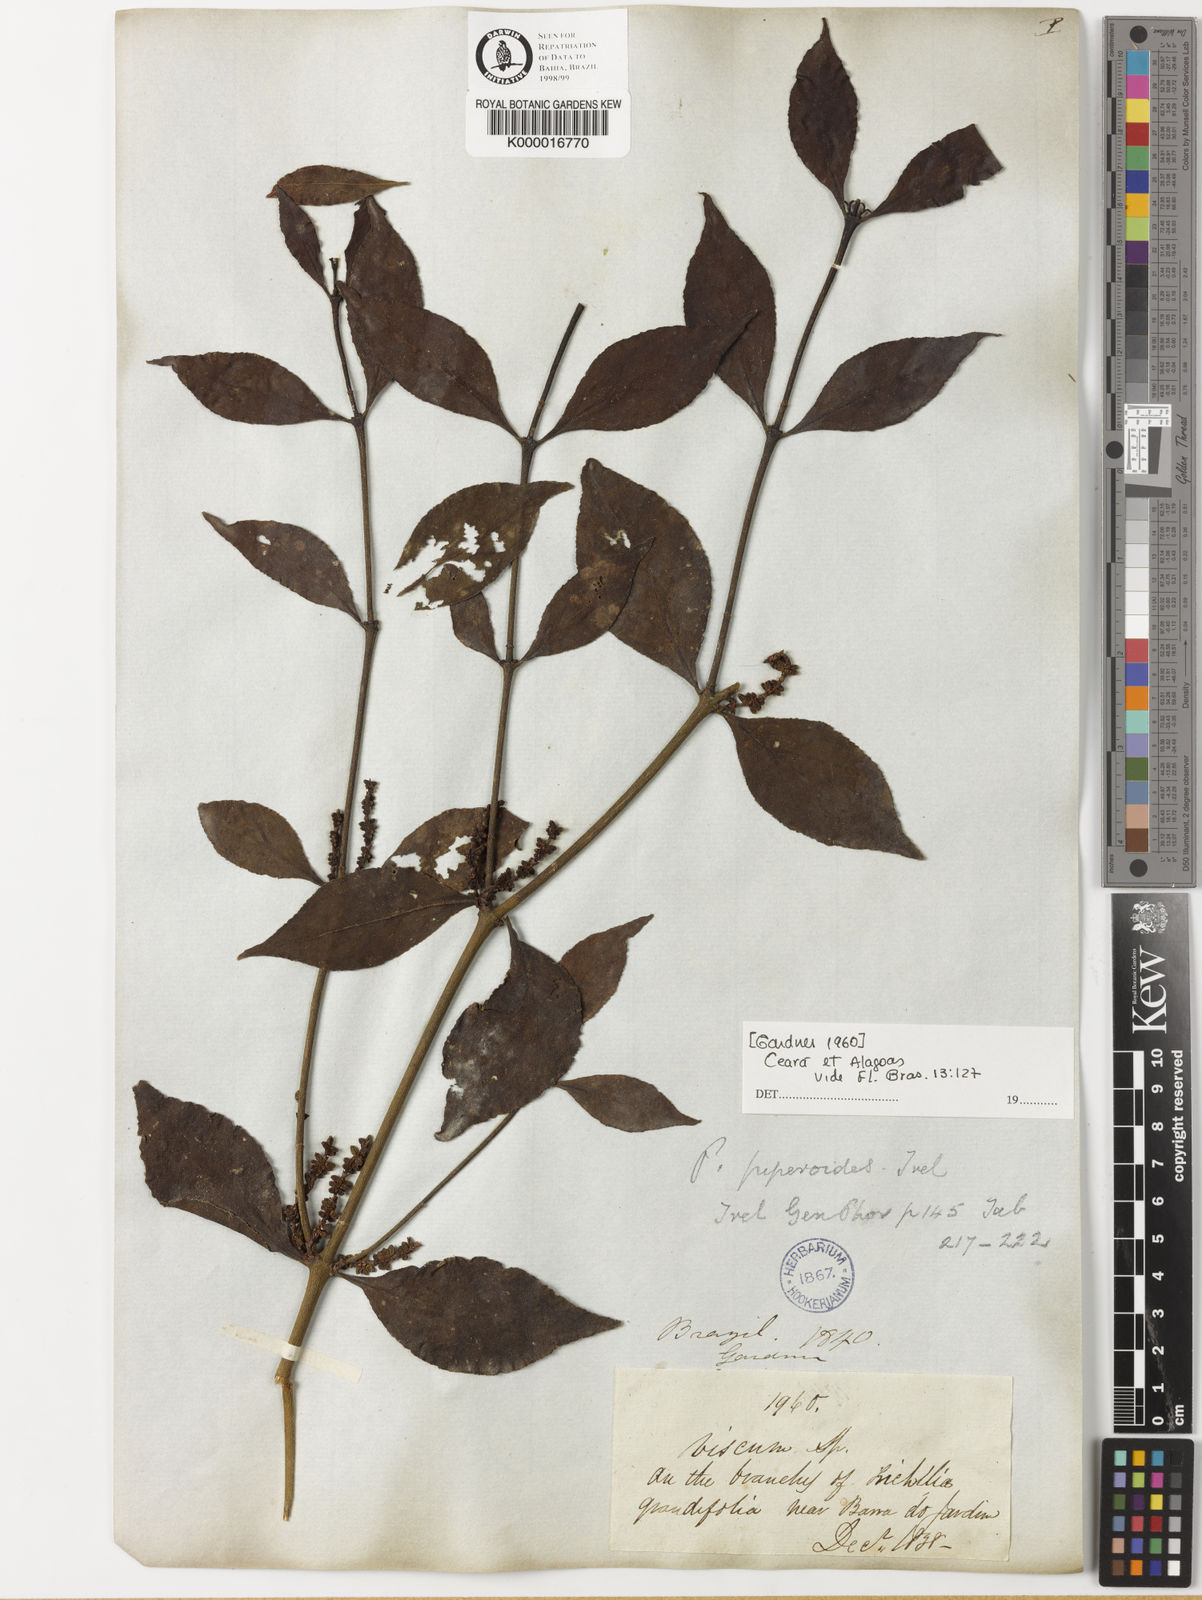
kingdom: Plantae
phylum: Tracheophyta
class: Magnoliopsida
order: Santalales
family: Viscaceae
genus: Phoradendron
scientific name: Phoradendron piperoides
